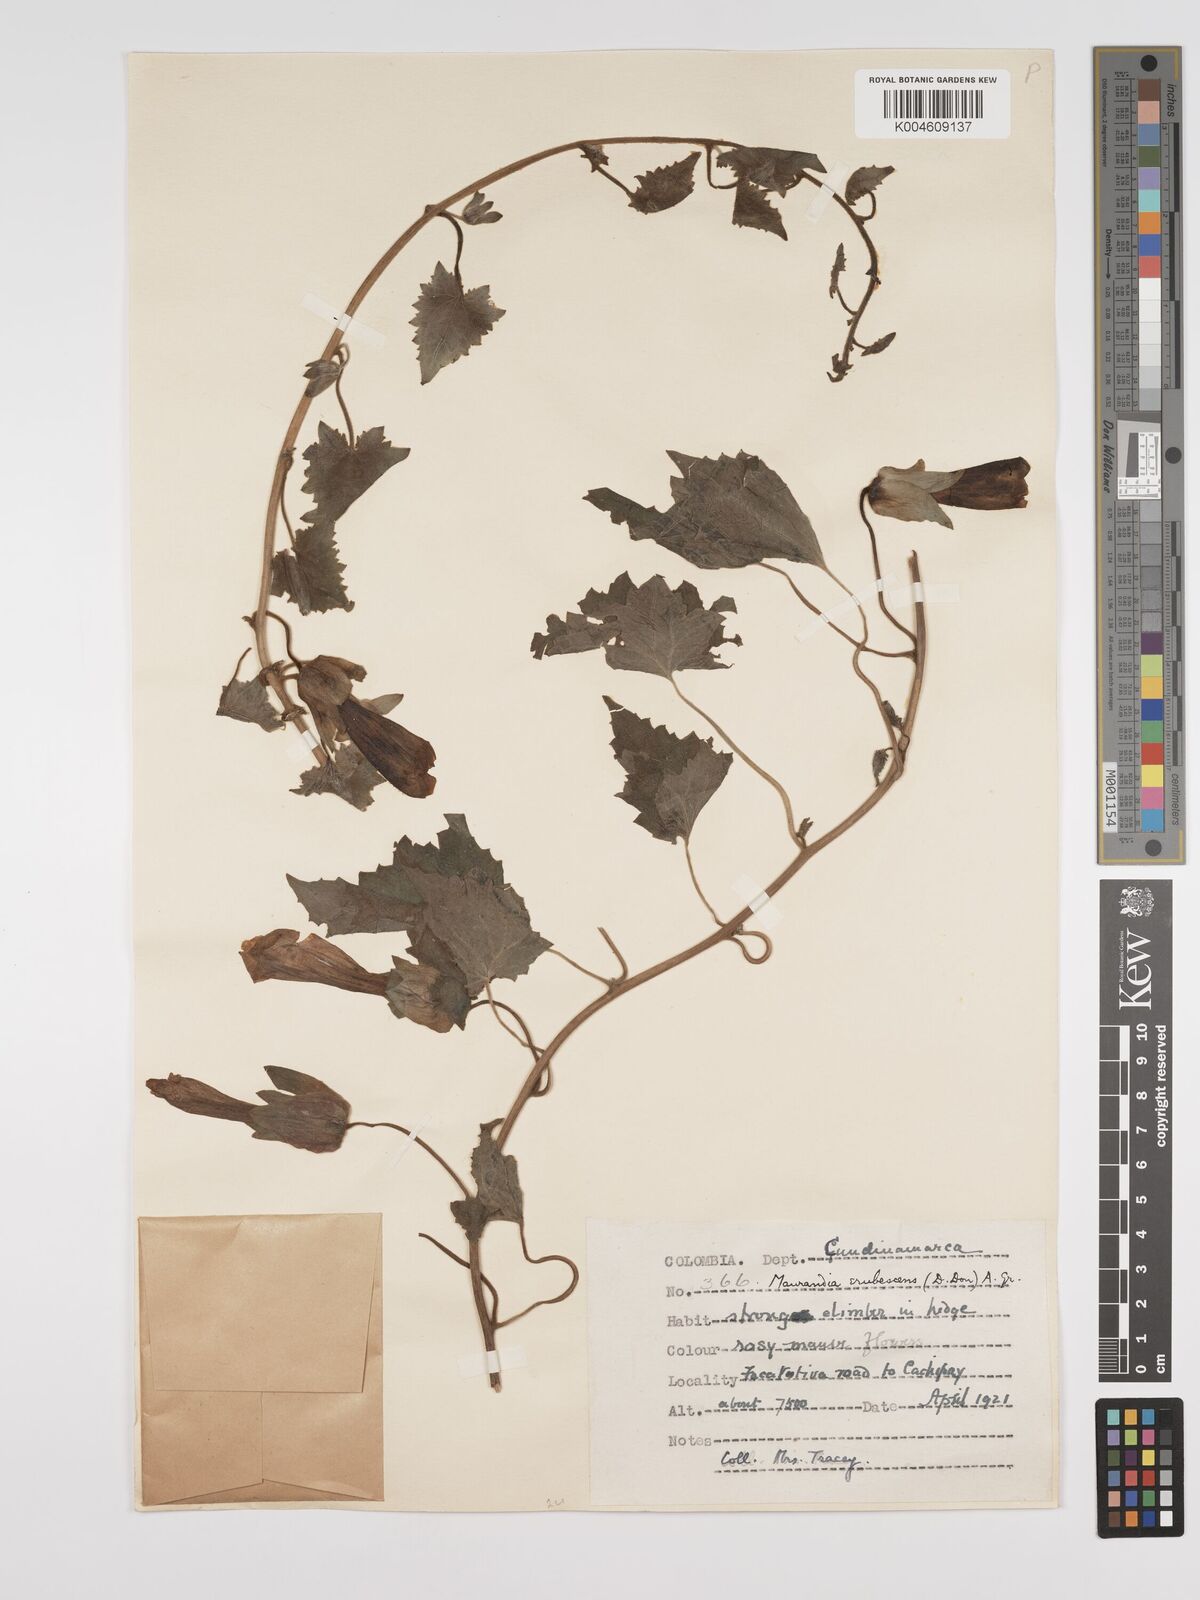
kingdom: Plantae
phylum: Tracheophyta
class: Magnoliopsida
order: Lamiales
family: Plantaginaceae
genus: Lophospermum
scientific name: Lophospermum erubescens
